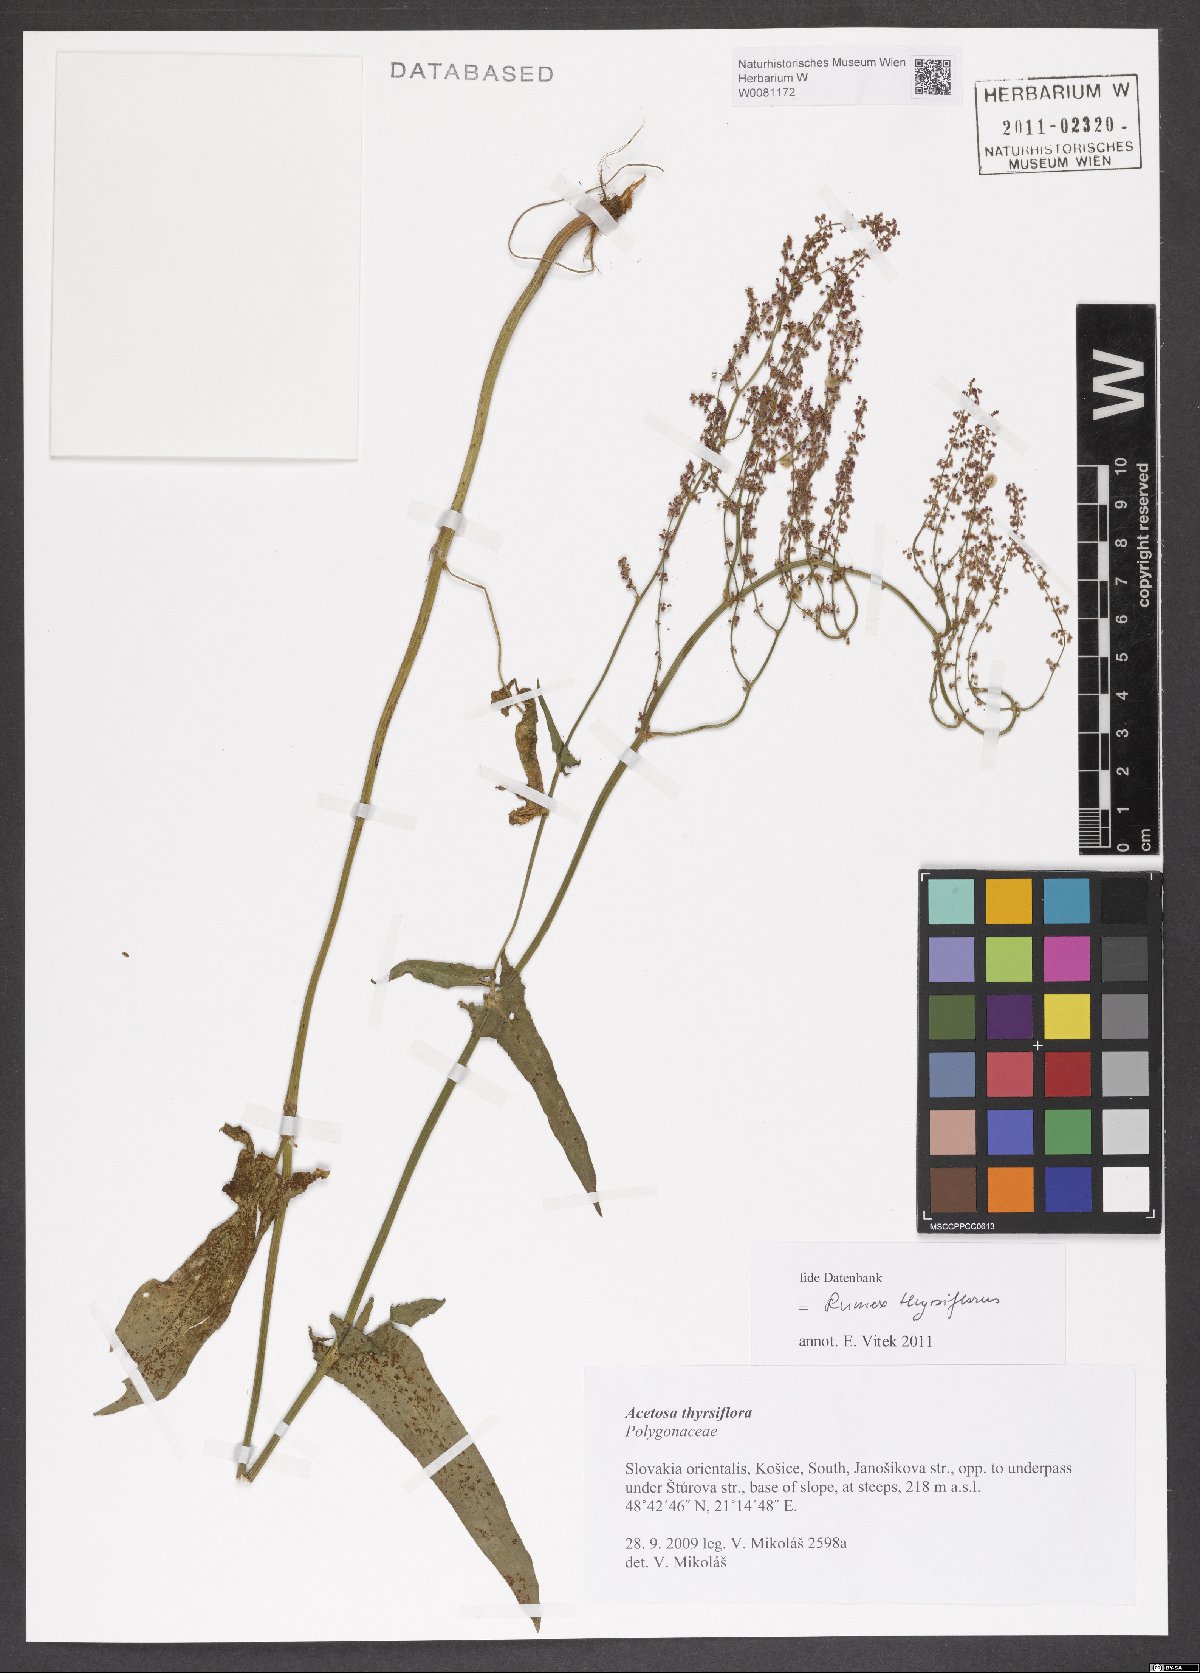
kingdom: Plantae
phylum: Tracheophyta
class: Magnoliopsida
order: Caryophyllales
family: Polygonaceae
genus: Rumex
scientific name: Rumex thyrsiflorus
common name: Garden sorrel
